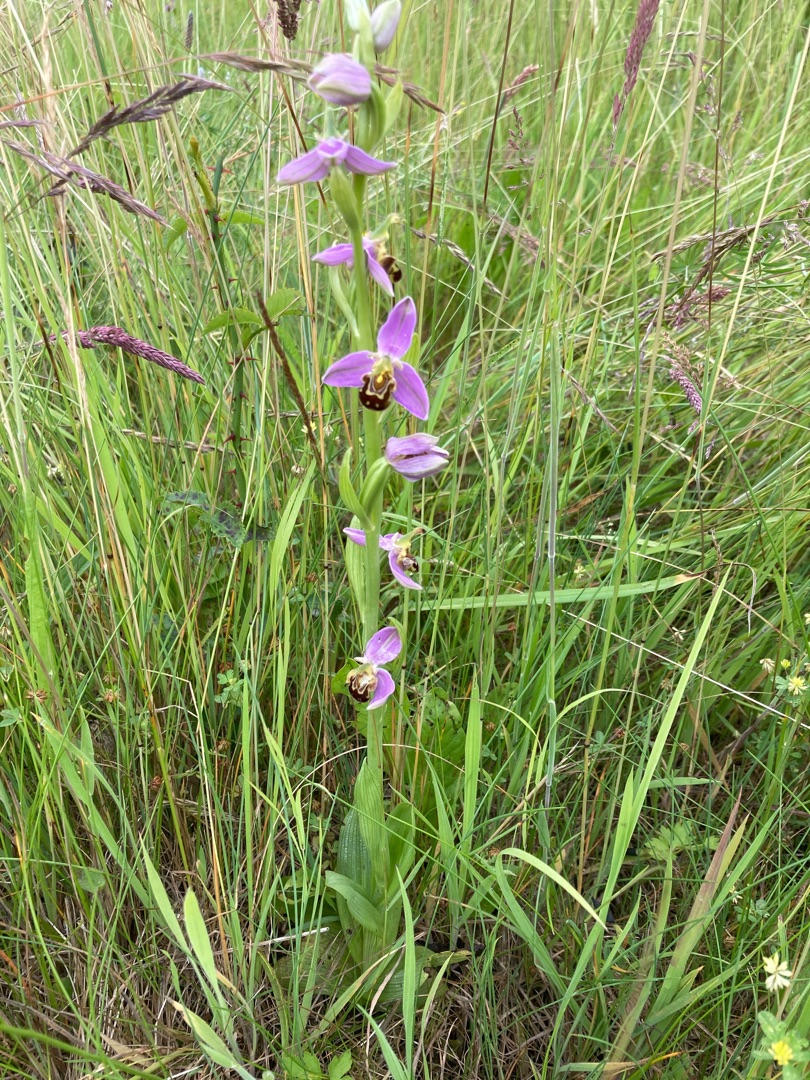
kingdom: Plantae
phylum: Tracheophyta
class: Liliopsida
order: Asparagales
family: Orchidaceae
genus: Ophrys
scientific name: Ophrys apifera
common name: Biblomst
